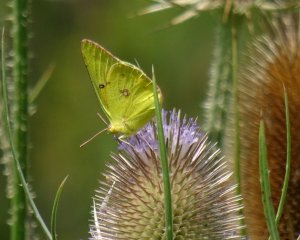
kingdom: Animalia
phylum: Arthropoda
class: Insecta
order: Lepidoptera
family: Pieridae
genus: Colias
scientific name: Colias philodice
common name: Clouded Sulphur
